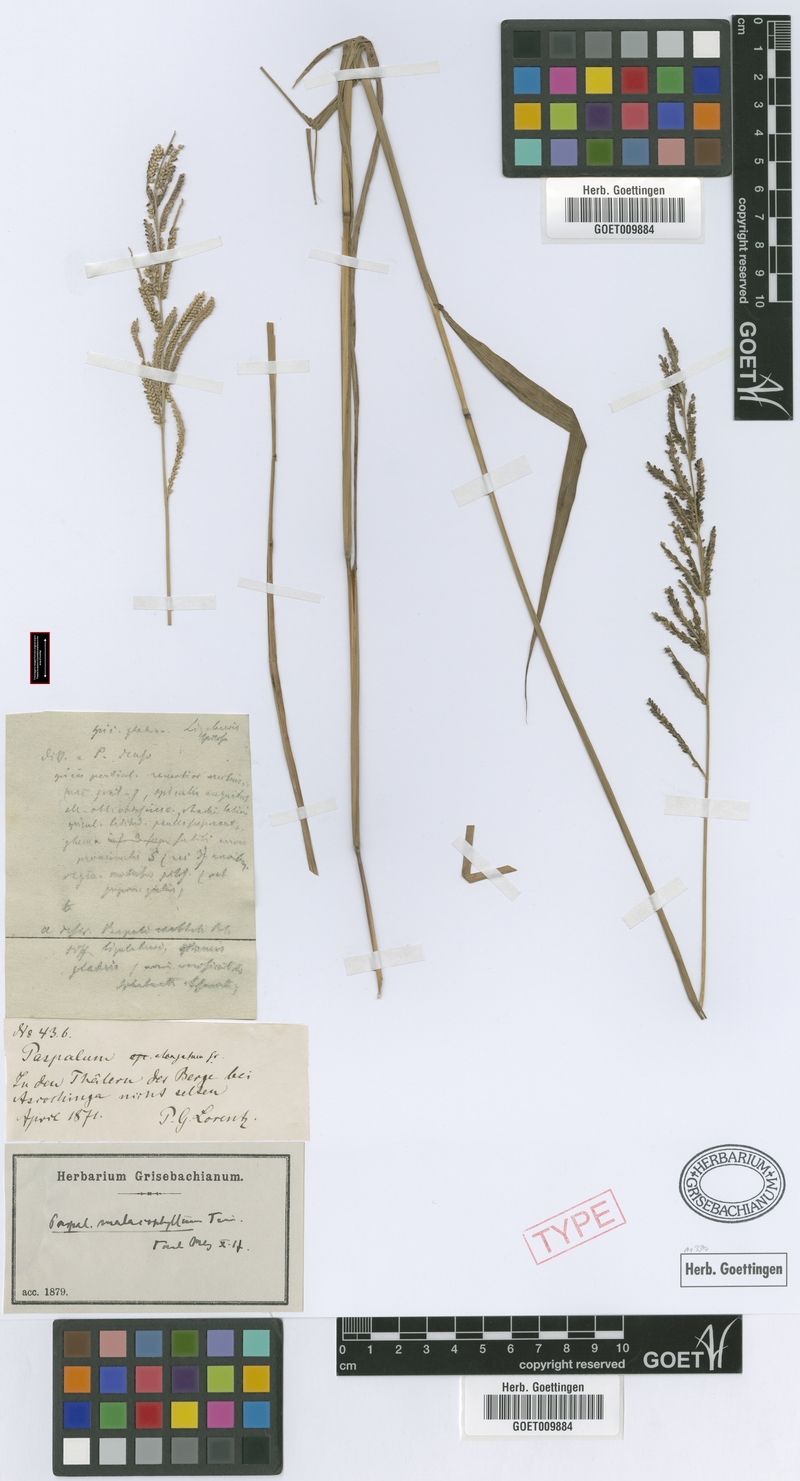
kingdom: Plantae
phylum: Tracheophyta
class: Liliopsida
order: Poales
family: Poaceae
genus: Paspalum
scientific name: Paspalum malacophyllum
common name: Ribbed paspalum
